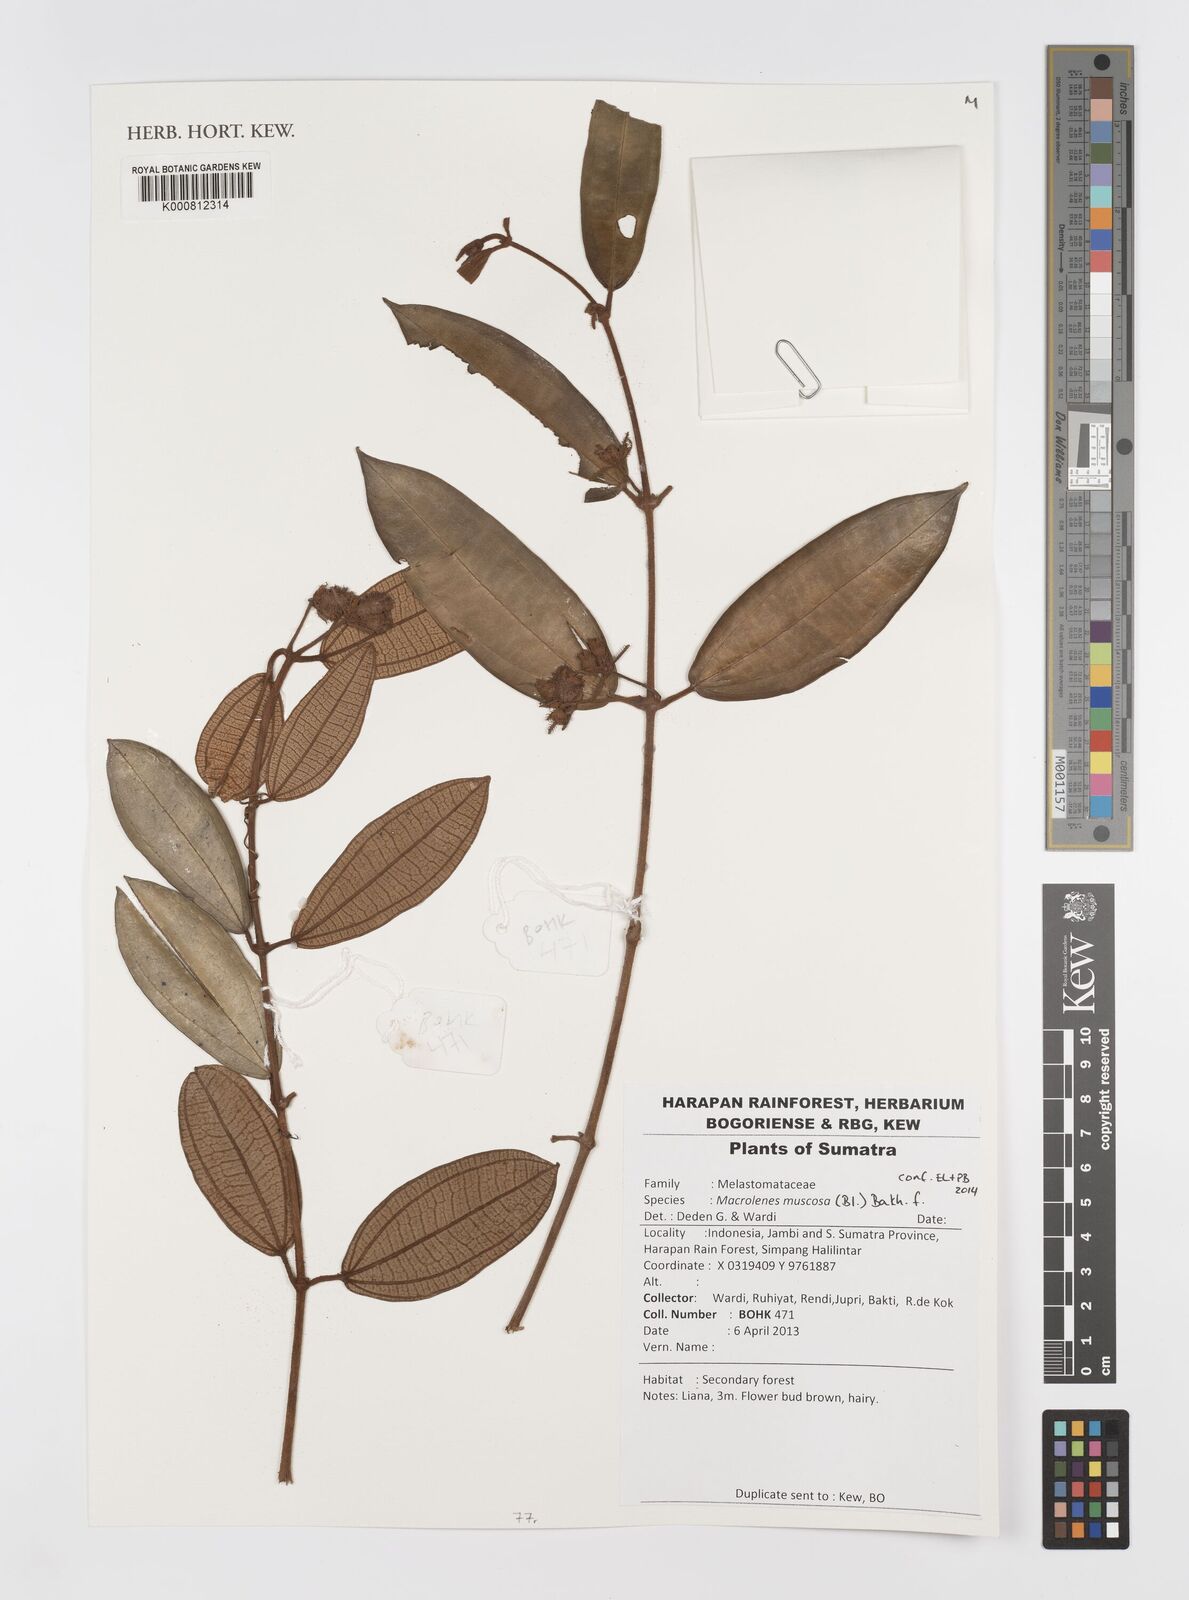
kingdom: Plantae
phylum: Tracheophyta
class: Magnoliopsida
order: Myrtales
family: Melastomataceae
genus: Macrolenes
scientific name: Macrolenes muscosa
